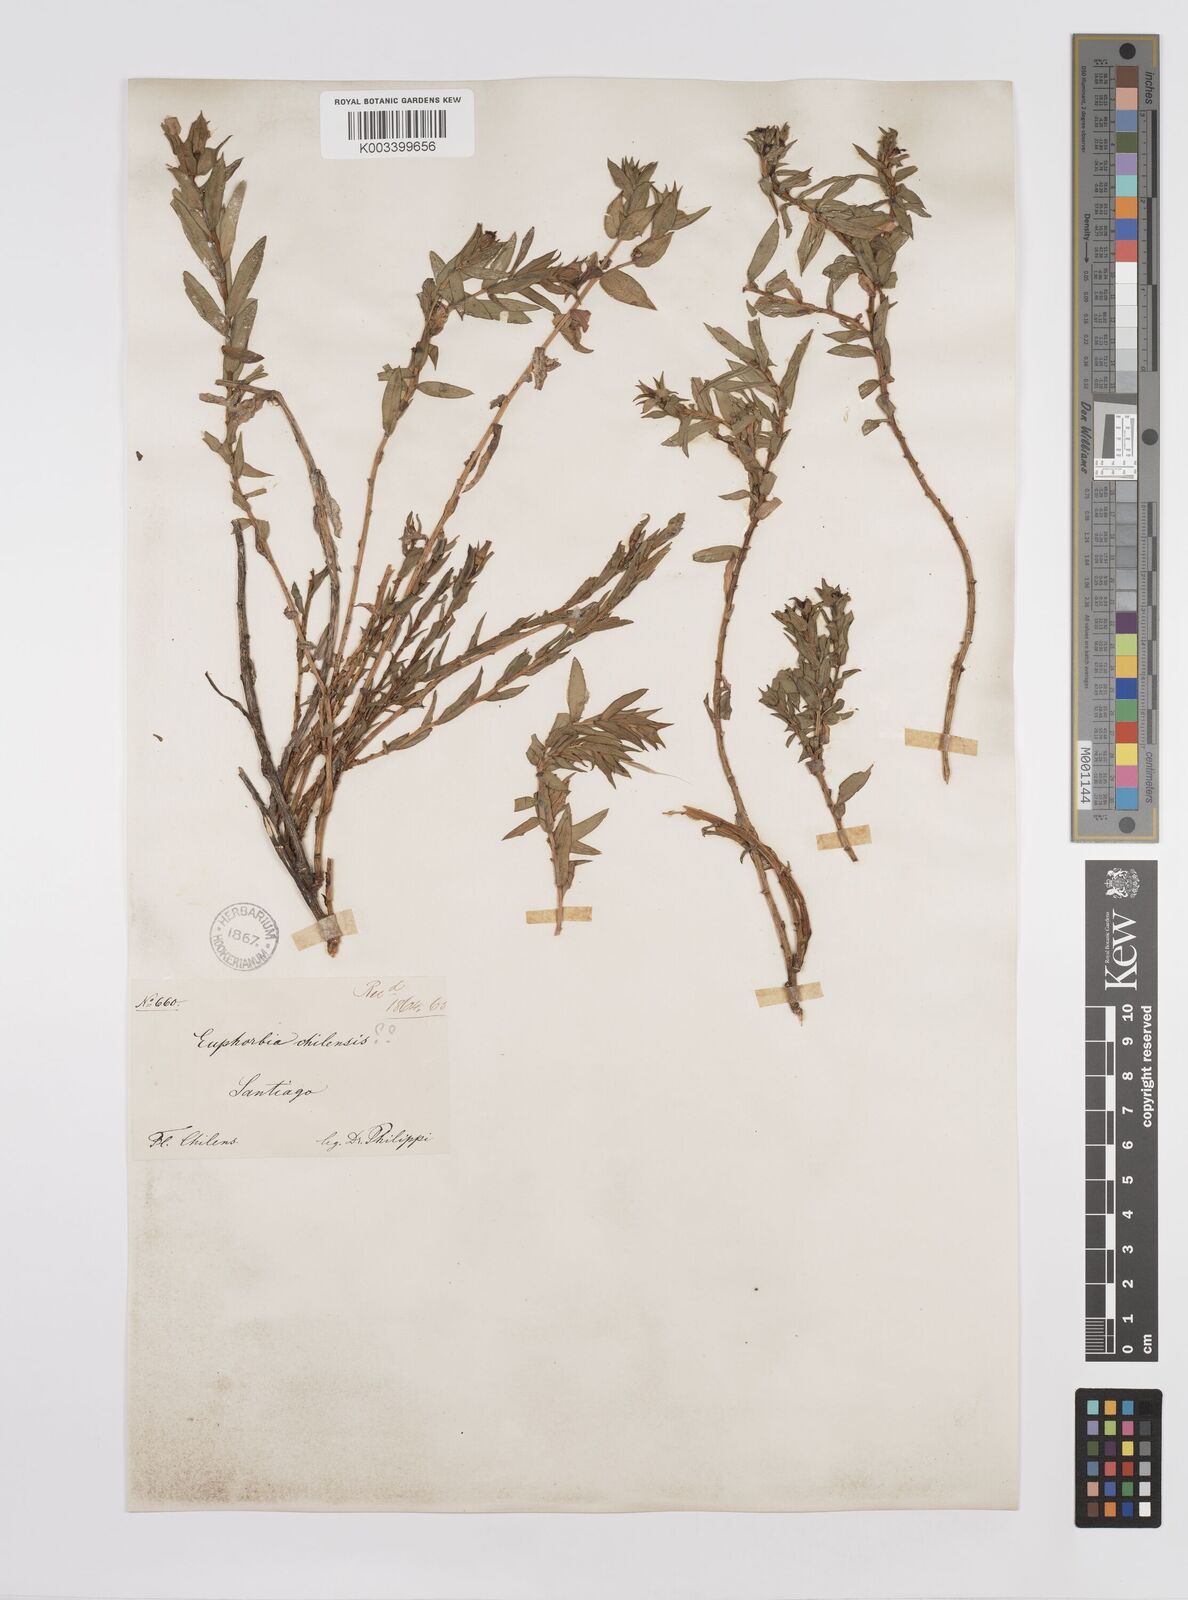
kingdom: Plantae
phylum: Tracheophyta
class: Magnoliopsida
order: Malpighiales
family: Euphorbiaceae
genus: Euphorbia
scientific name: Euphorbia portulacoides
